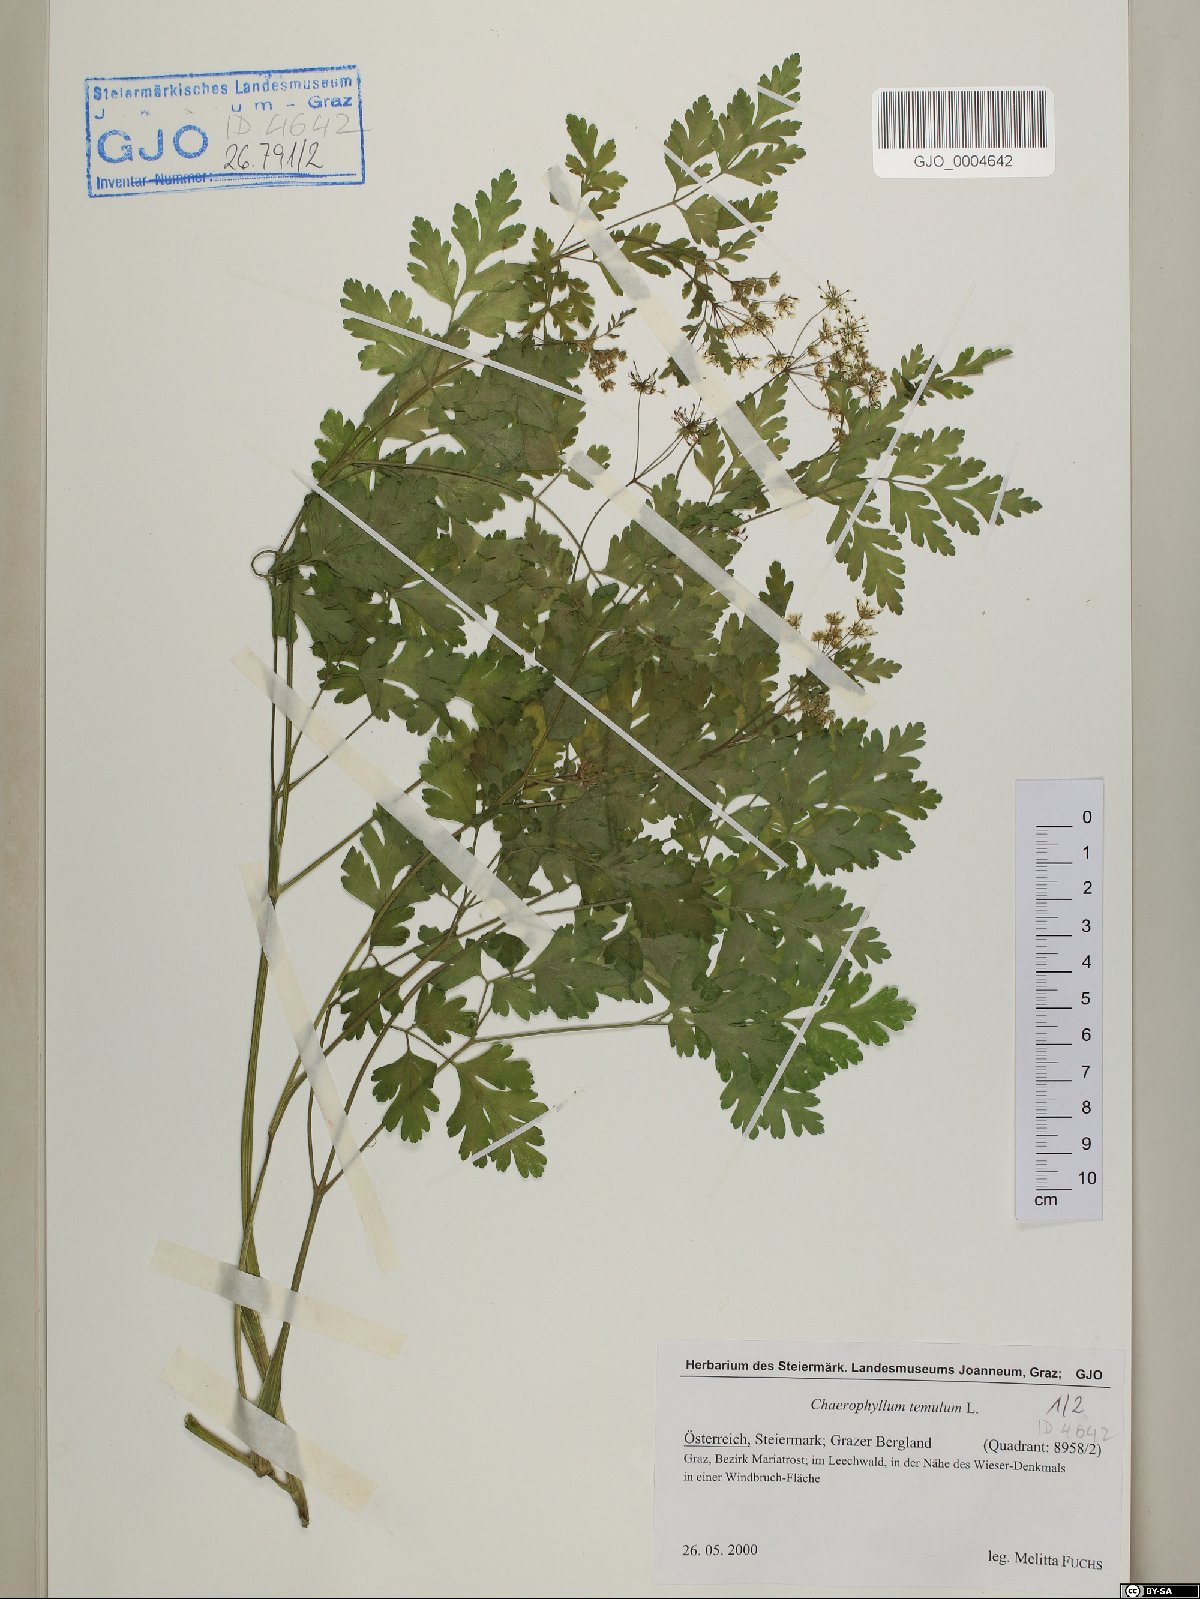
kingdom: Plantae
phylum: Tracheophyta
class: Magnoliopsida
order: Apiales
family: Apiaceae
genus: Chaerophyllum
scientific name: Chaerophyllum temulum
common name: Rough chervil
